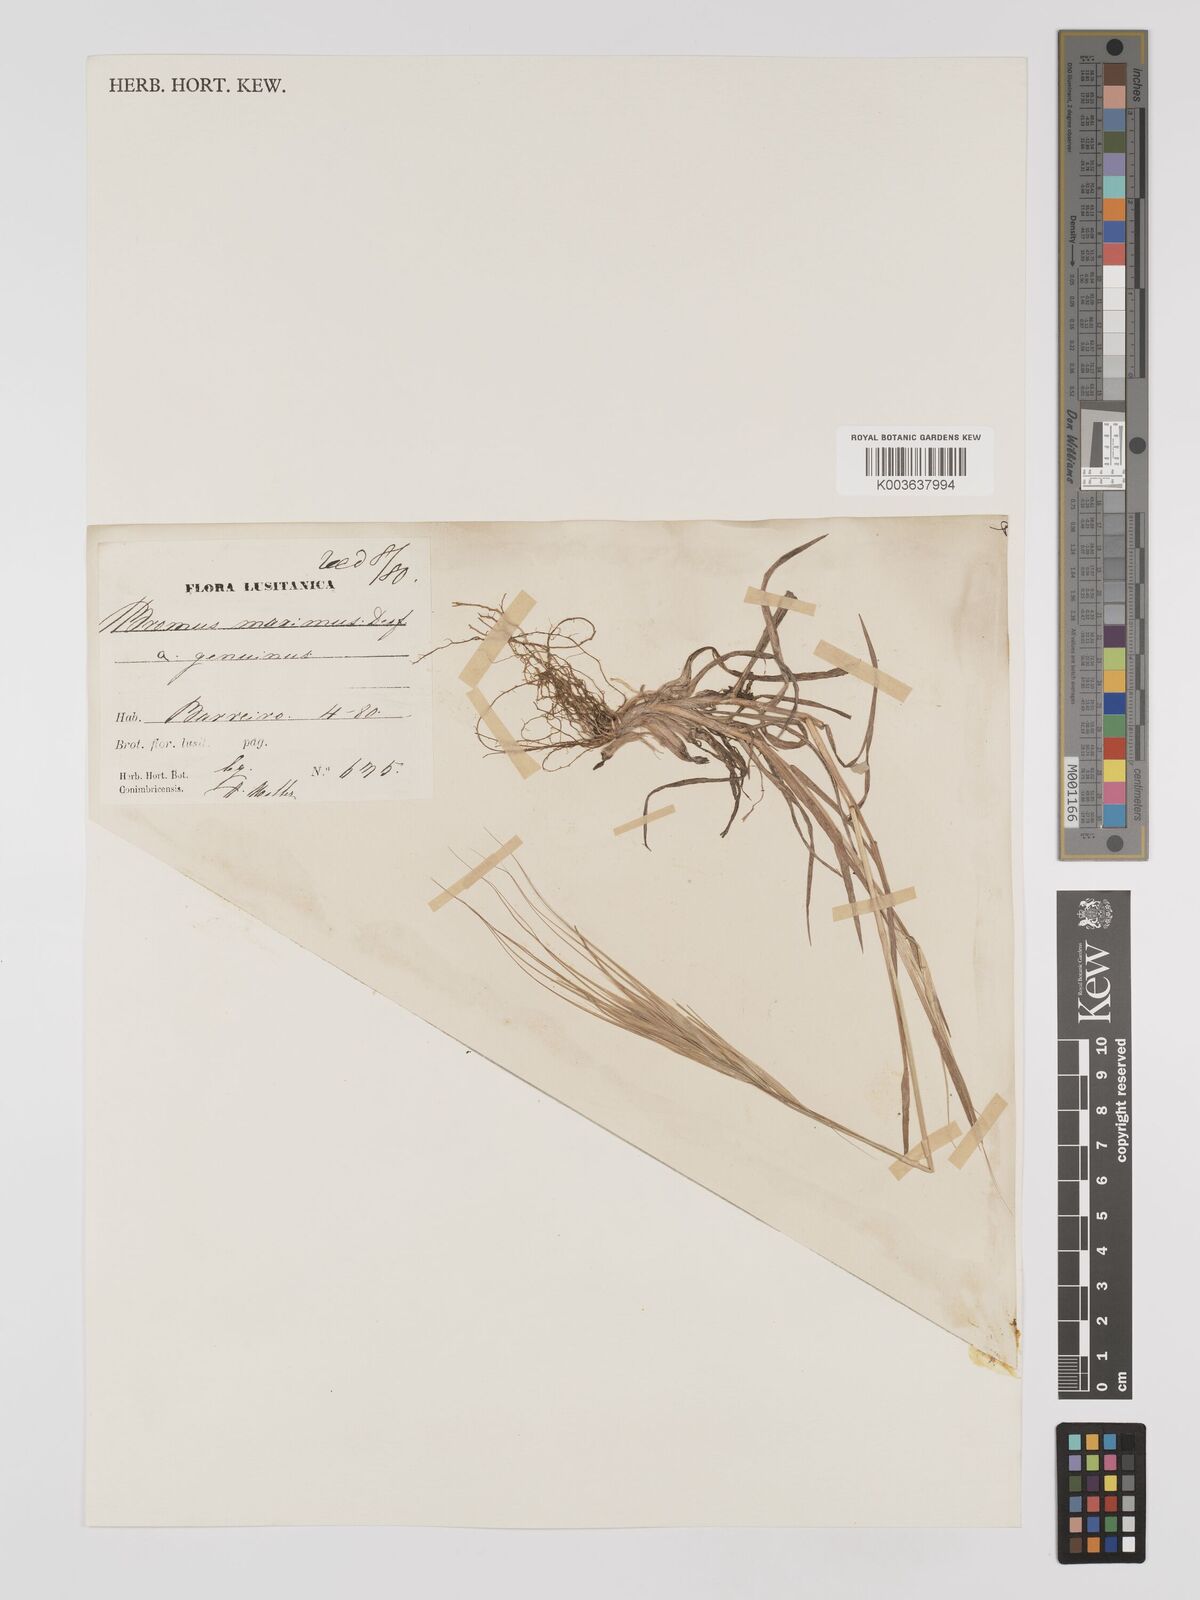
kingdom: Plantae
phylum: Tracheophyta
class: Liliopsida
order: Poales
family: Poaceae
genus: Bromus
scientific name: Bromus
